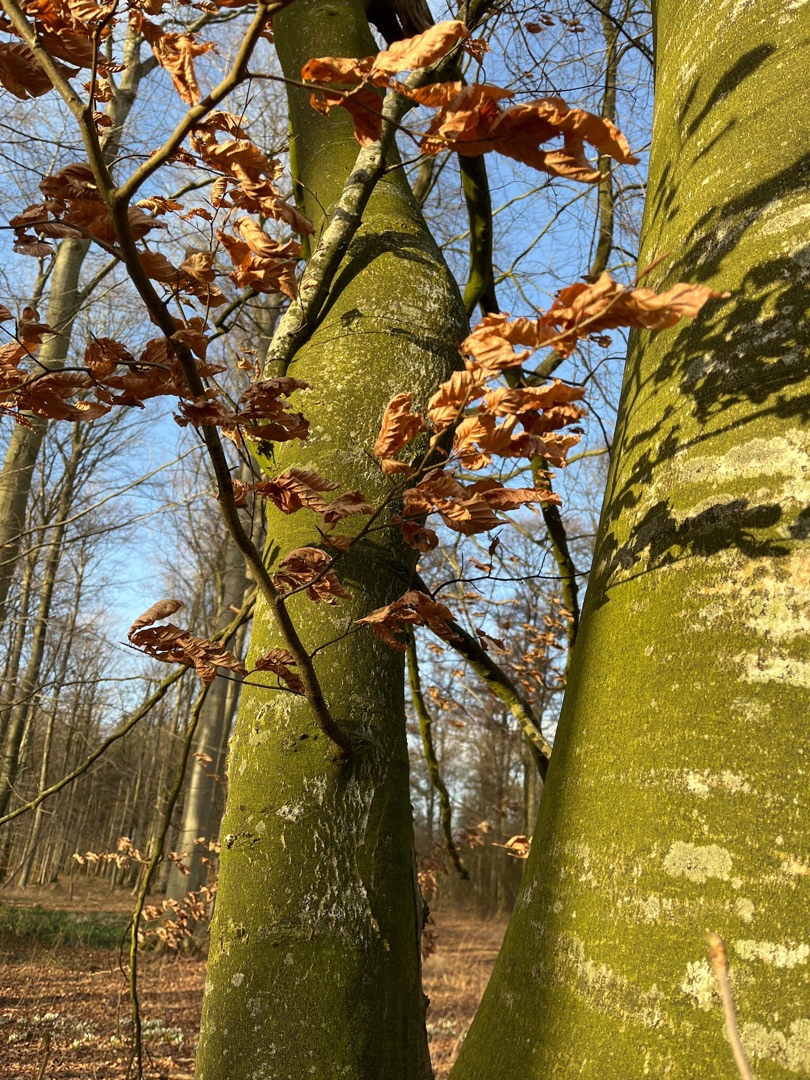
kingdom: Plantae
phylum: Tracheophyta
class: Magnoliopsida
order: Fagales
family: Fagaceae
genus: Fagus
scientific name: Fagus sylvatica
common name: Bøg
